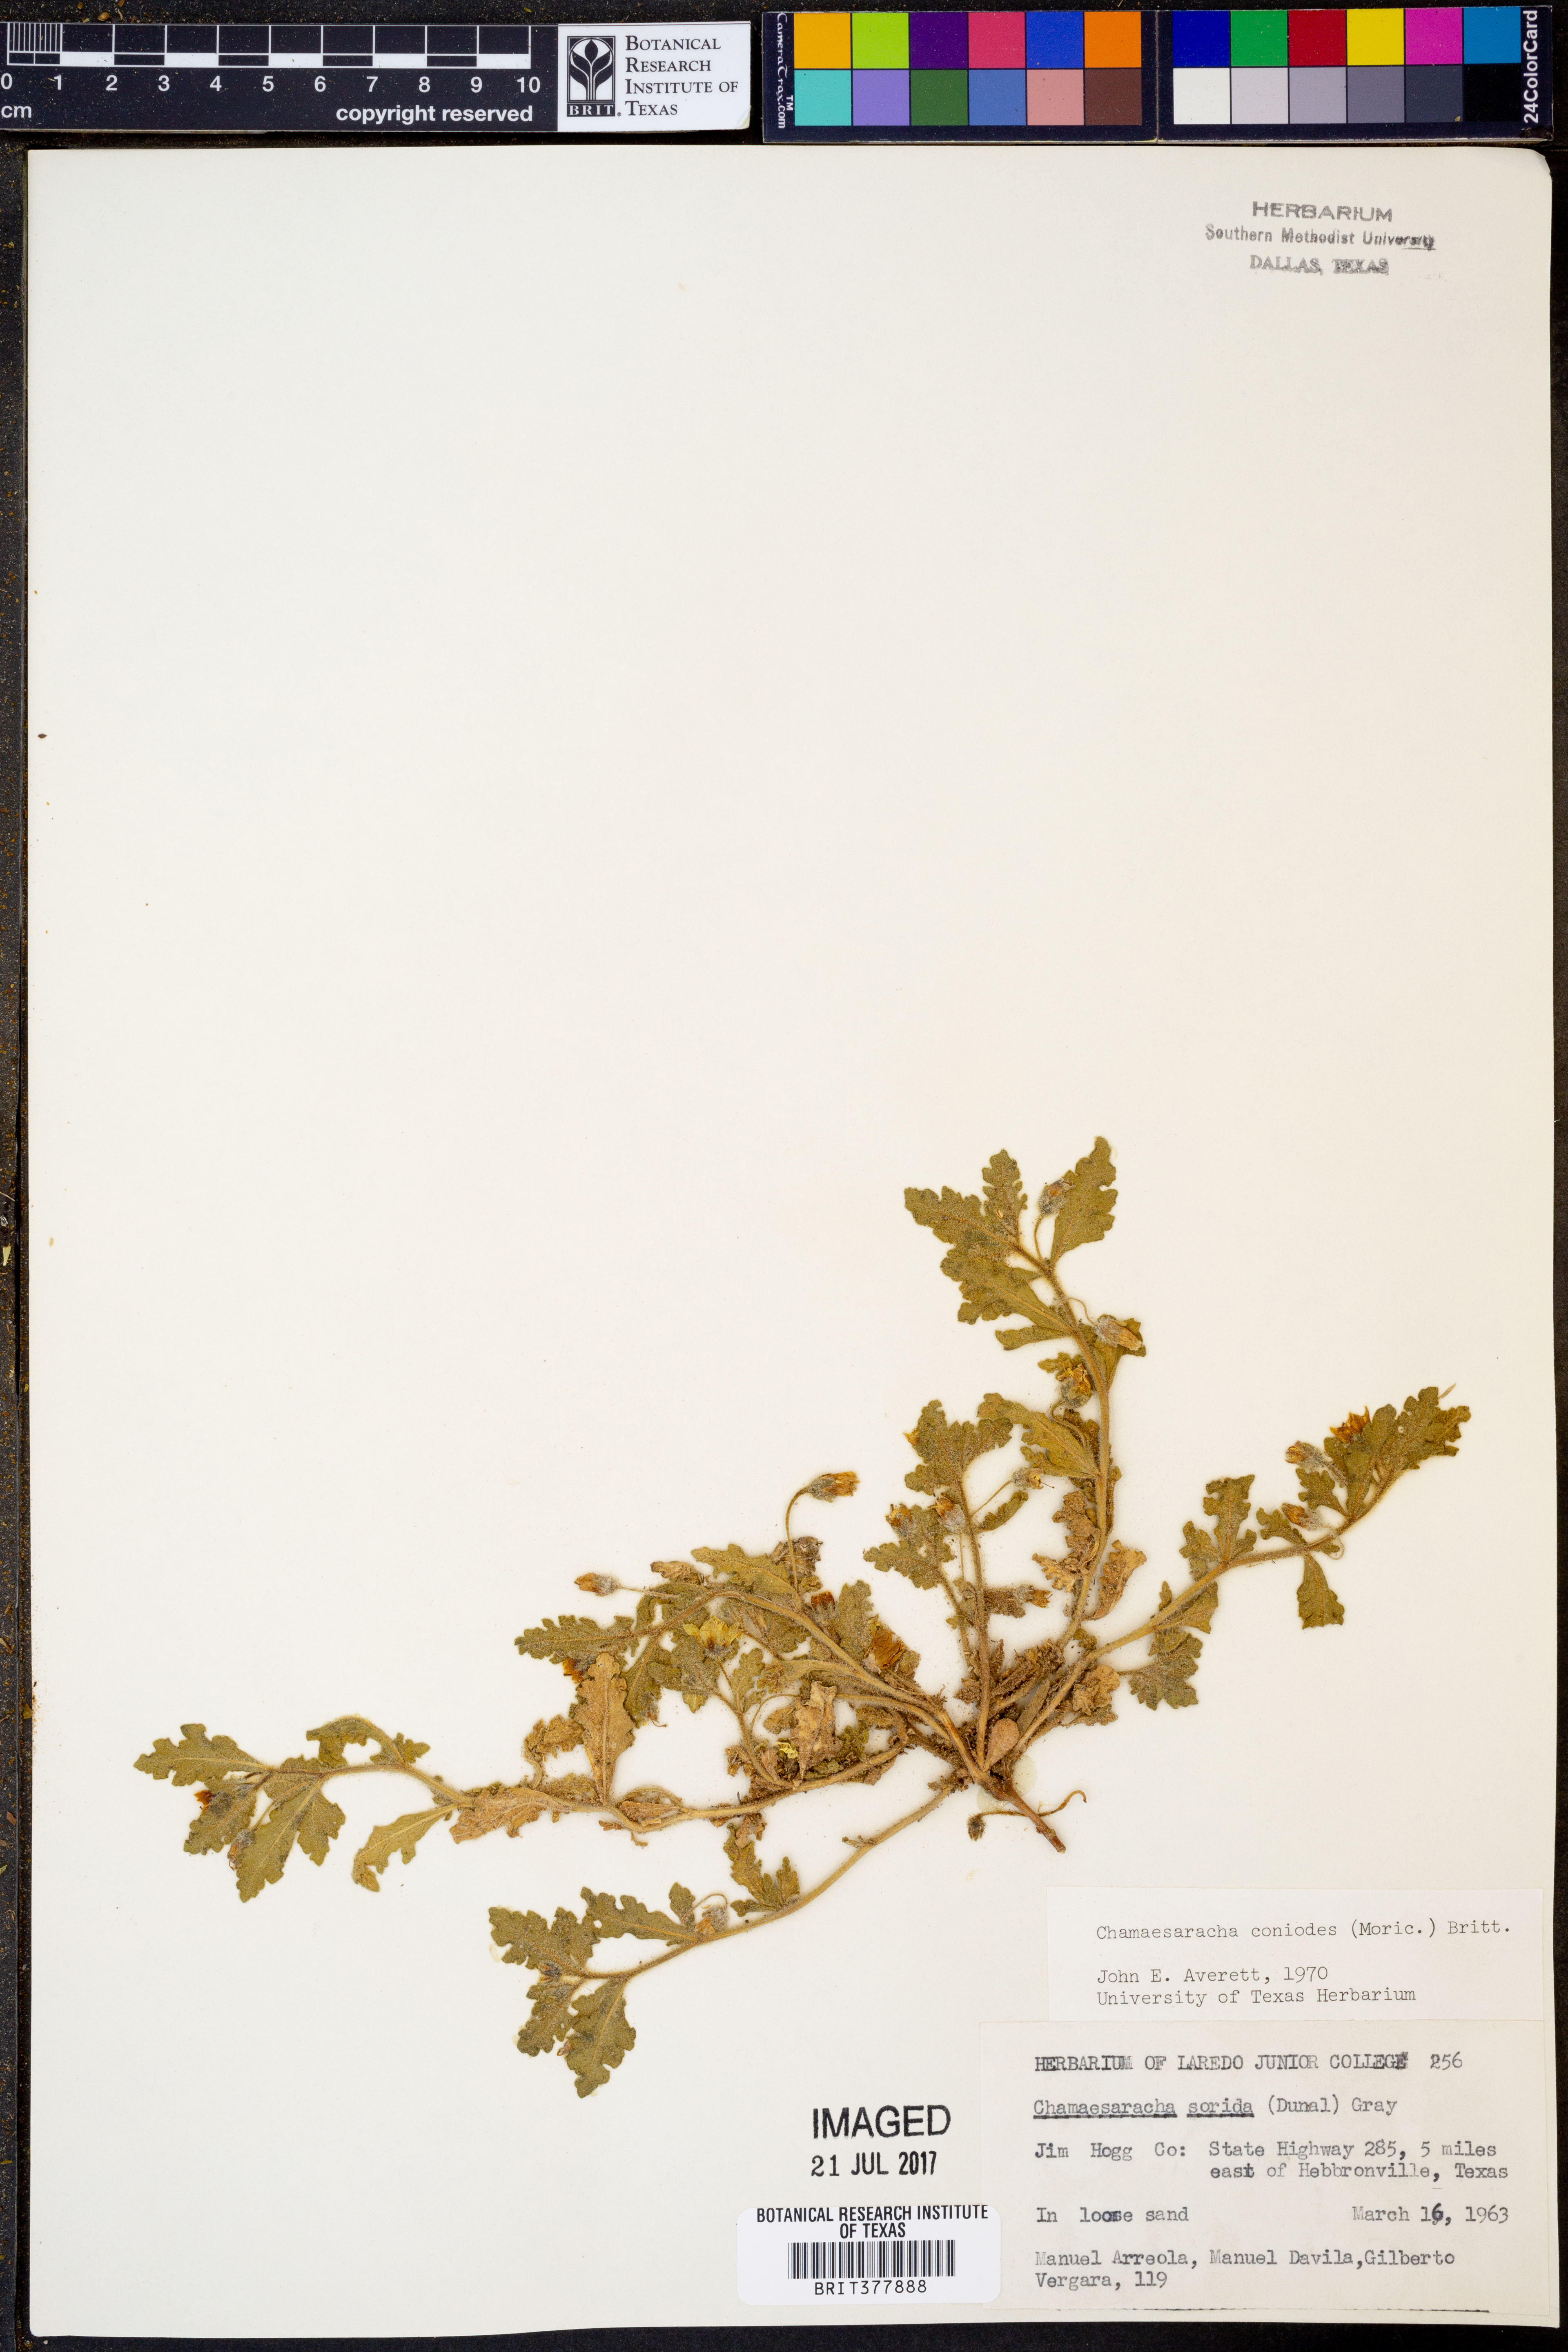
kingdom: Plantae
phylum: Tracheophyta
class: Magnoliopsida
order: Solanales
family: Solanaceae
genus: Chamaesaracha
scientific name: Chamaesaracha coniodes
